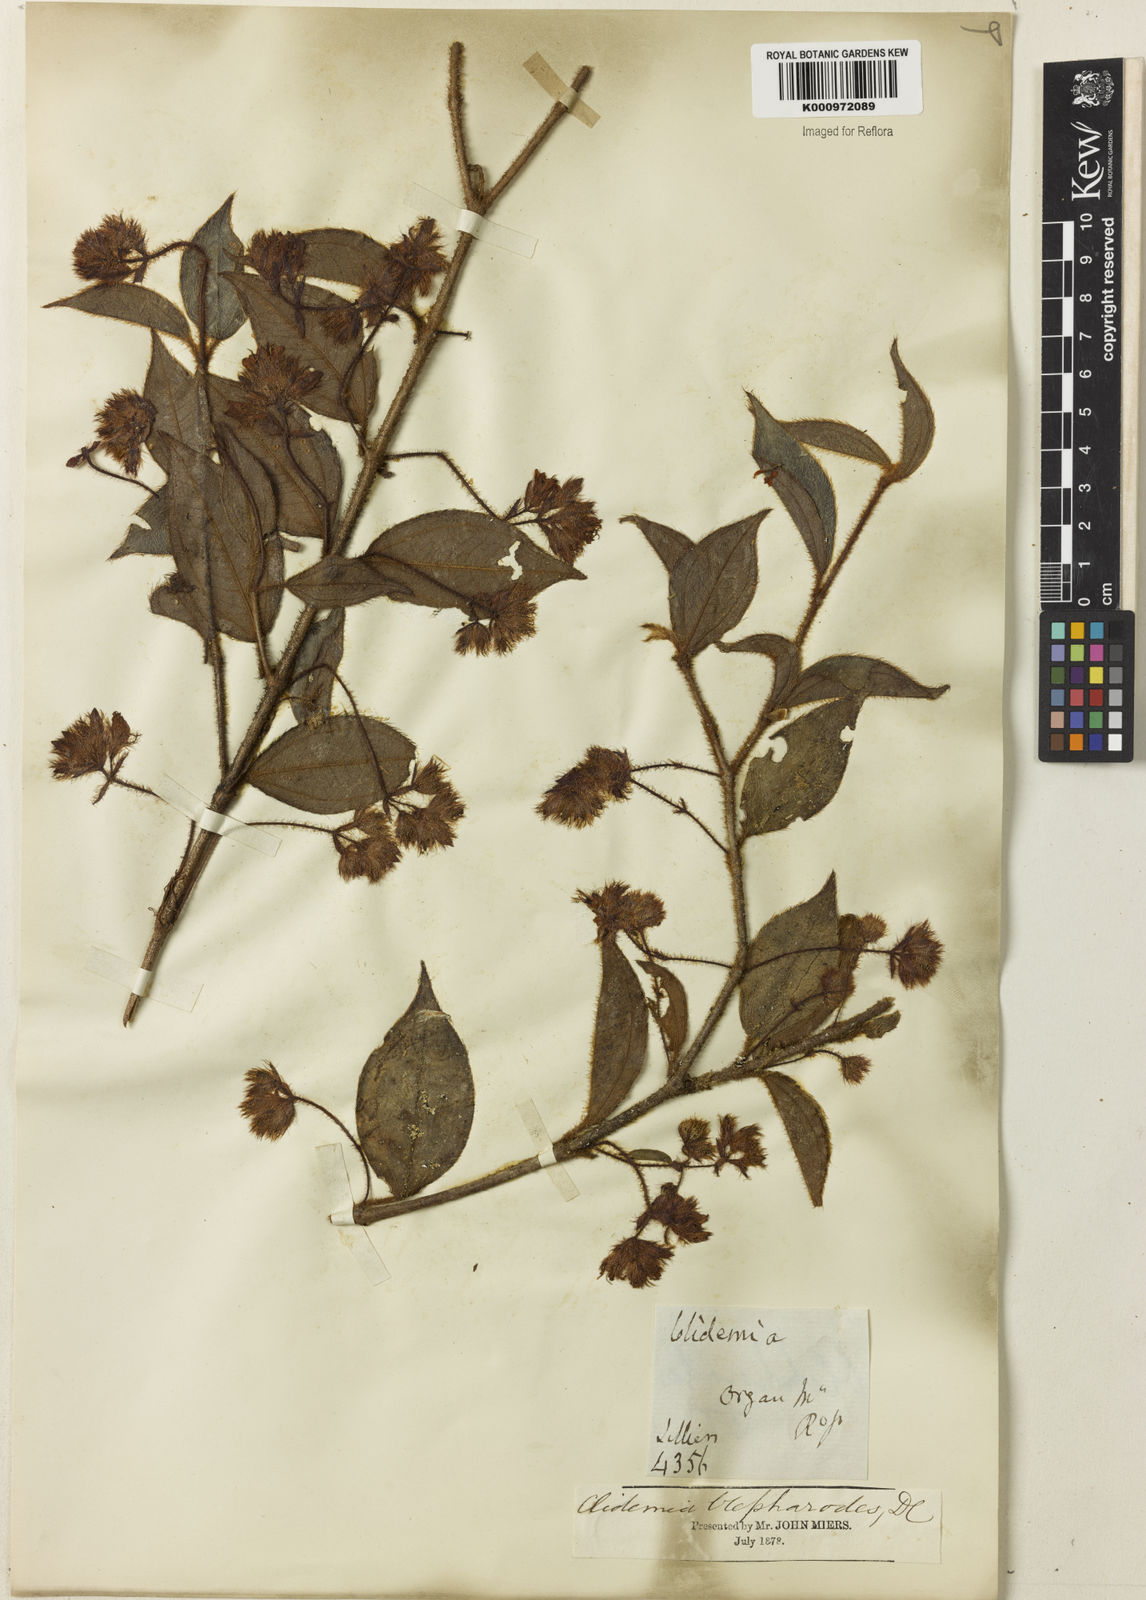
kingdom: Plantae
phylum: Tracheophyta
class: Magnoliopsida
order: Myrtales
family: Melastomataceae
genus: Miconia
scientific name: Miconia
